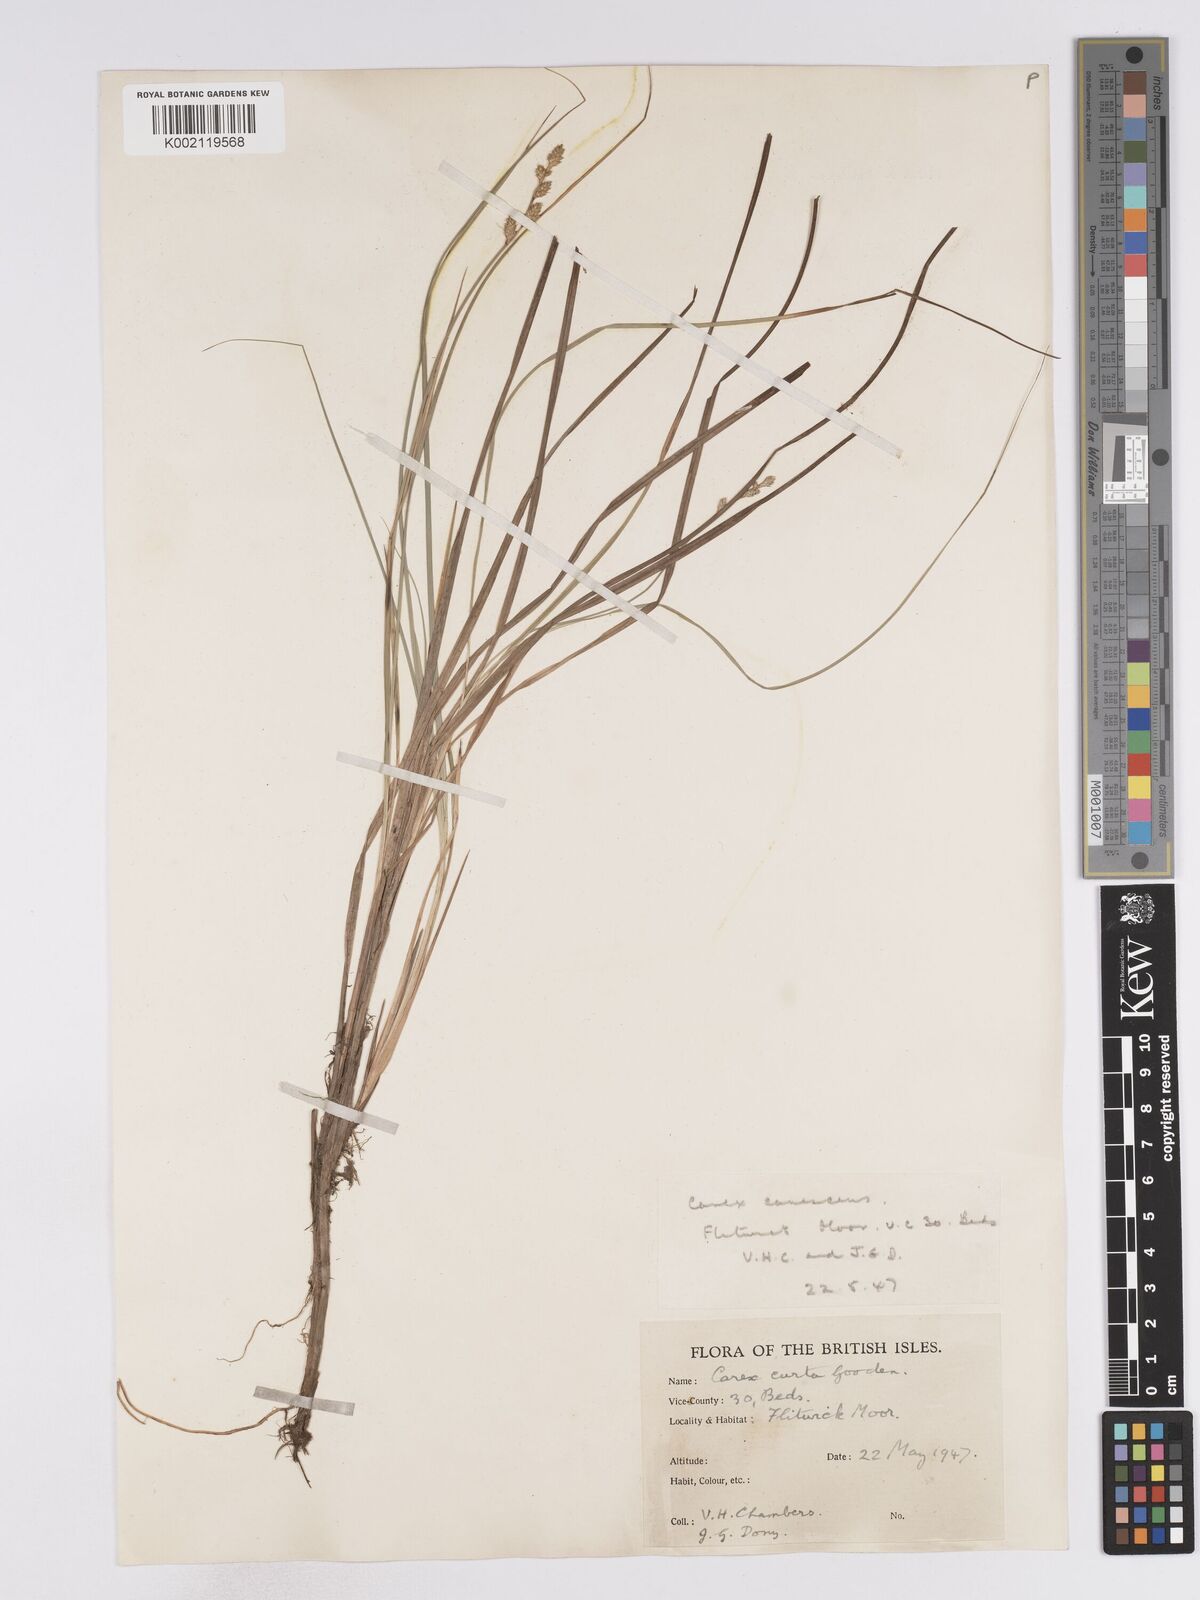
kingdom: Plantae
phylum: Tracheophyta
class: Liliopsida
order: Poales
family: Cyperaceae
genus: Carex
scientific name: Carex curta
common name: White sedge
